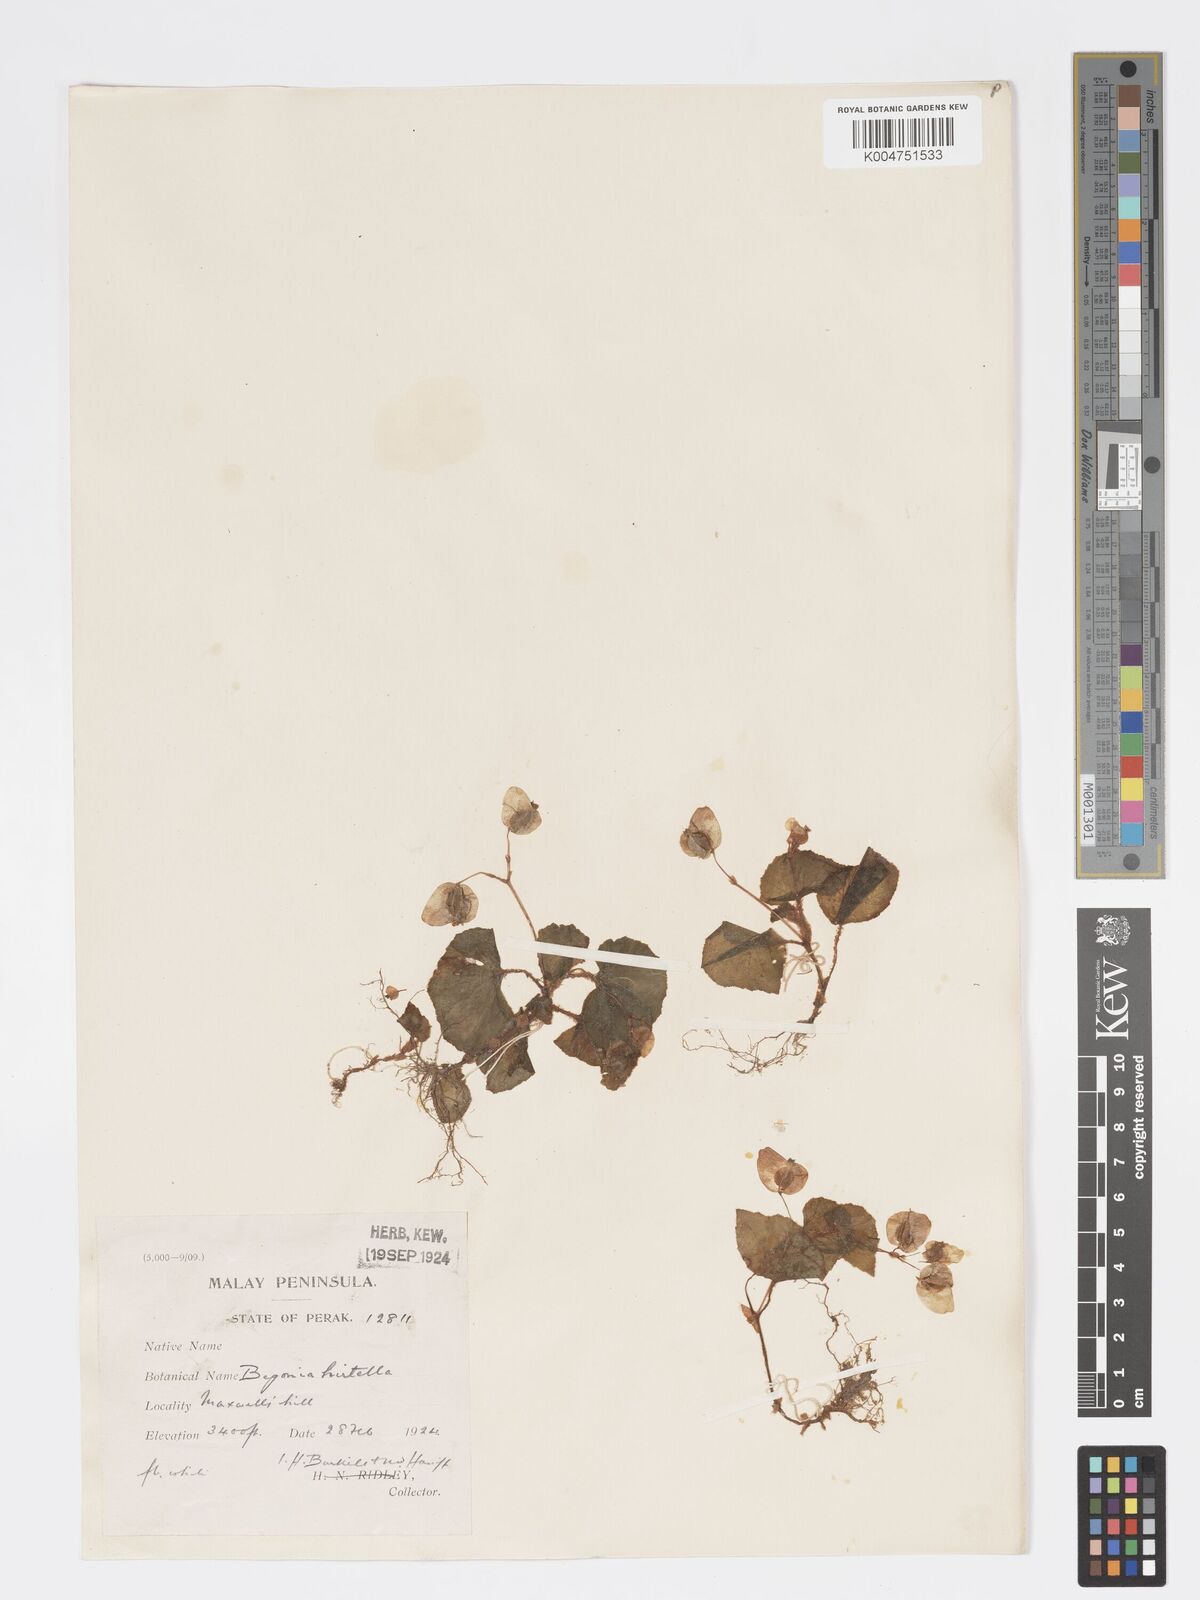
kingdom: Plantae
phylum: Tracheophyta
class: Magnoliopsida
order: Cucurbitales
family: Begoniaceae
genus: Begonia
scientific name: Begonia
